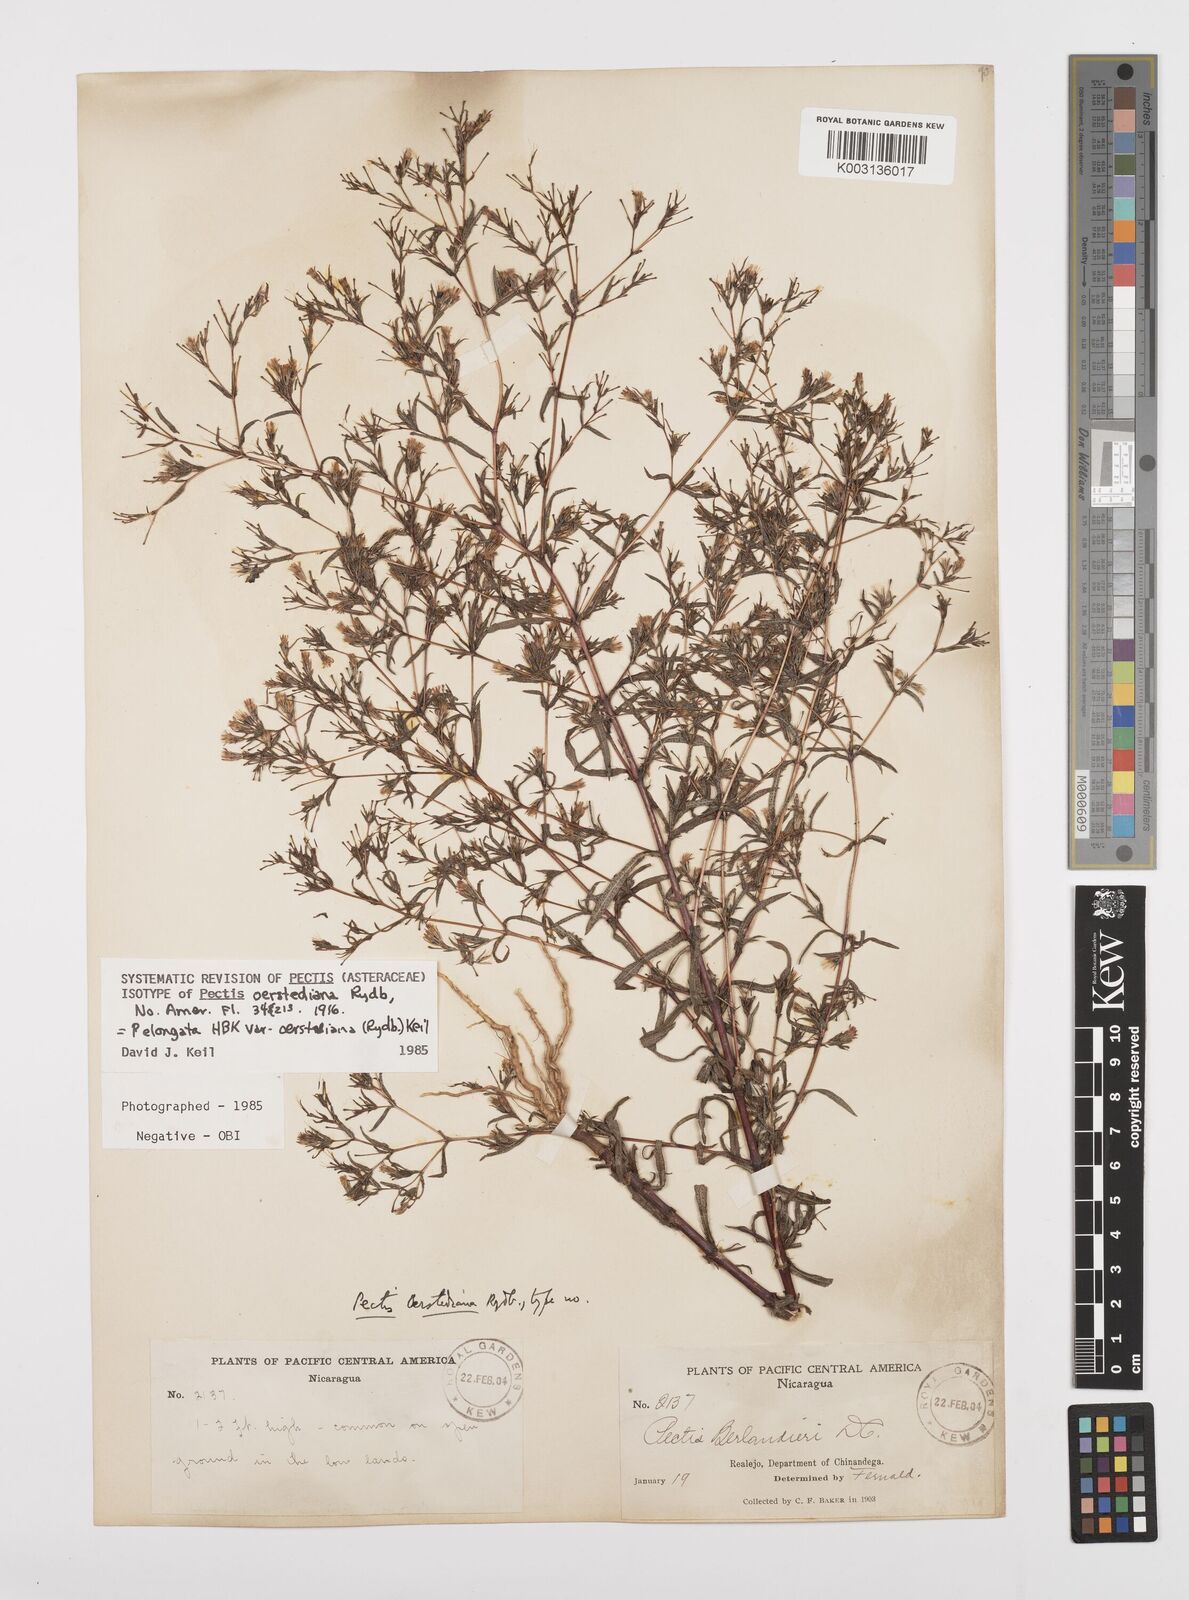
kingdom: Plantae
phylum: Tracheophyta
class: Magnoliopsida
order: Asterales
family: Asteraceae
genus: Pectis
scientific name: Pectis elongata
